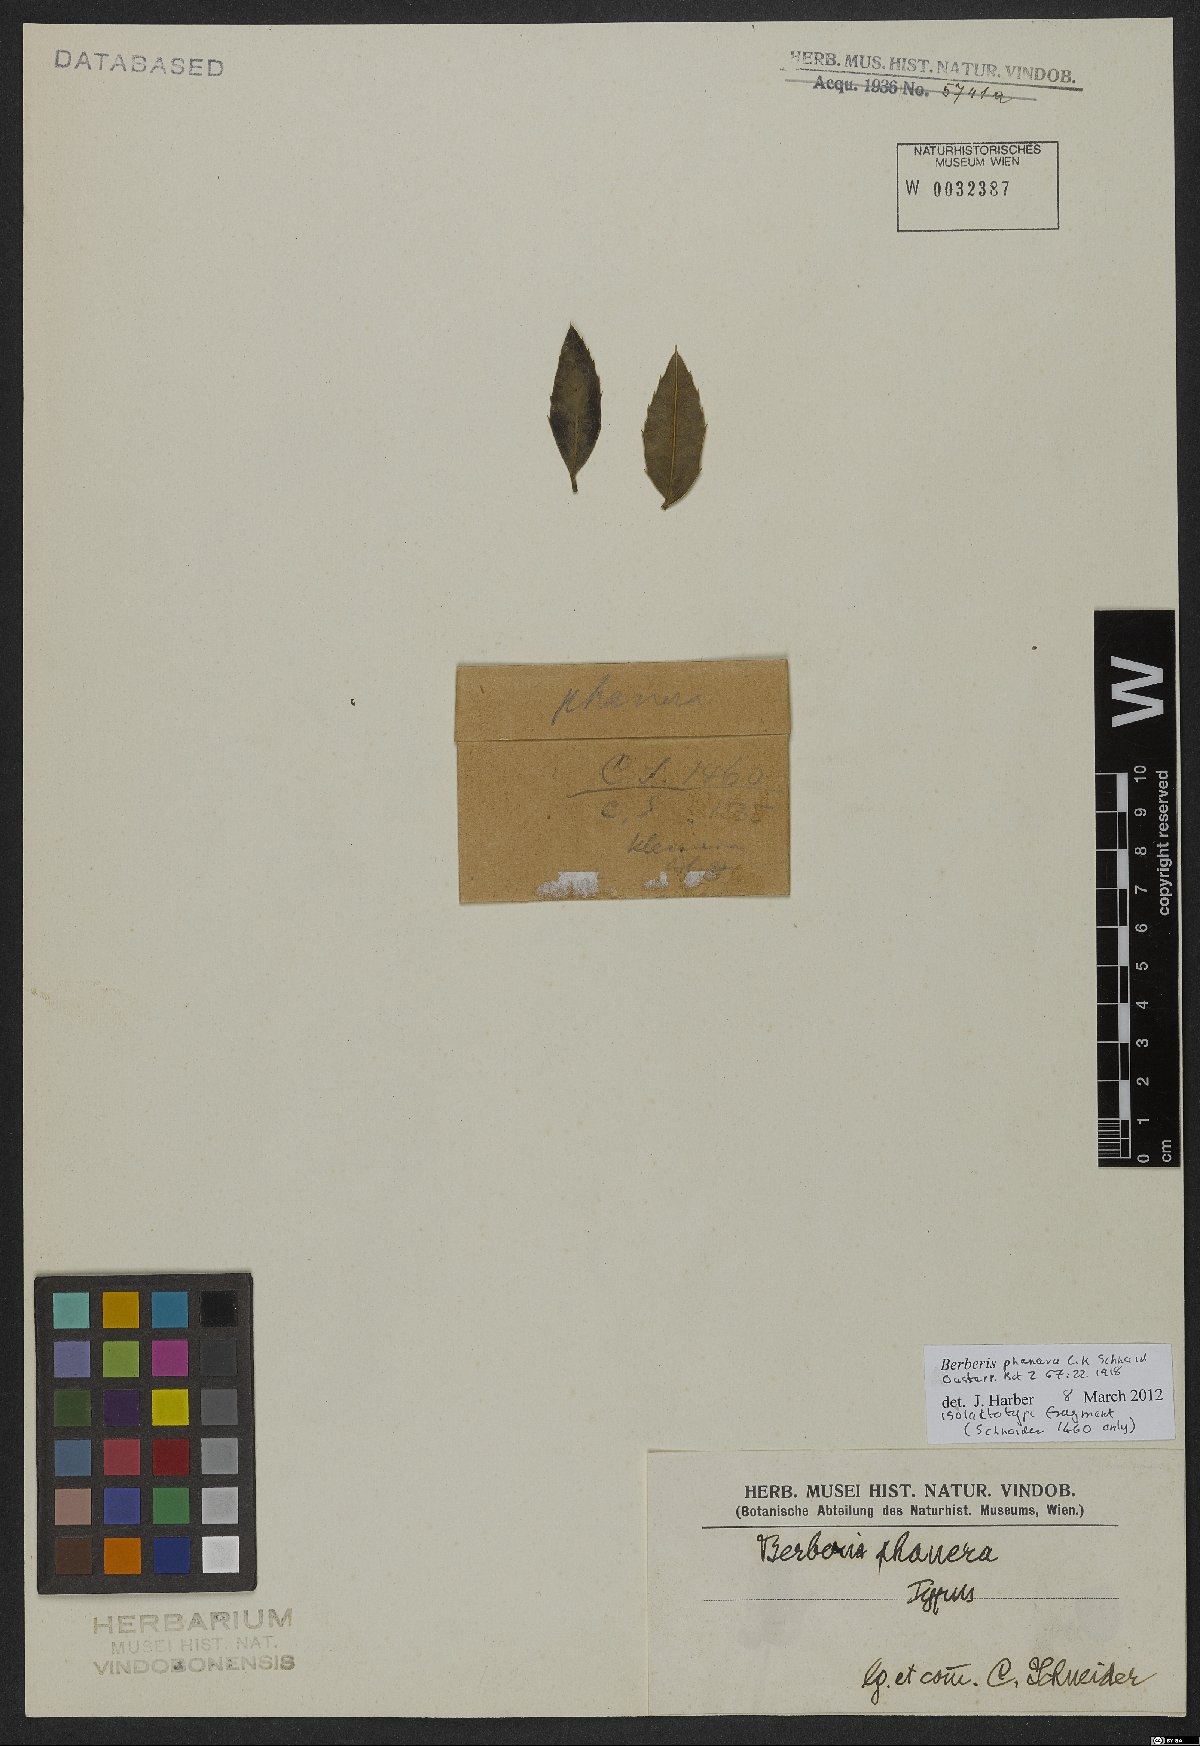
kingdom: Plantae
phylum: Tracheophyta
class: Magnoliopsida
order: Ranunculales
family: Berberidaceae
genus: Berberis
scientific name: Berberis phanera
